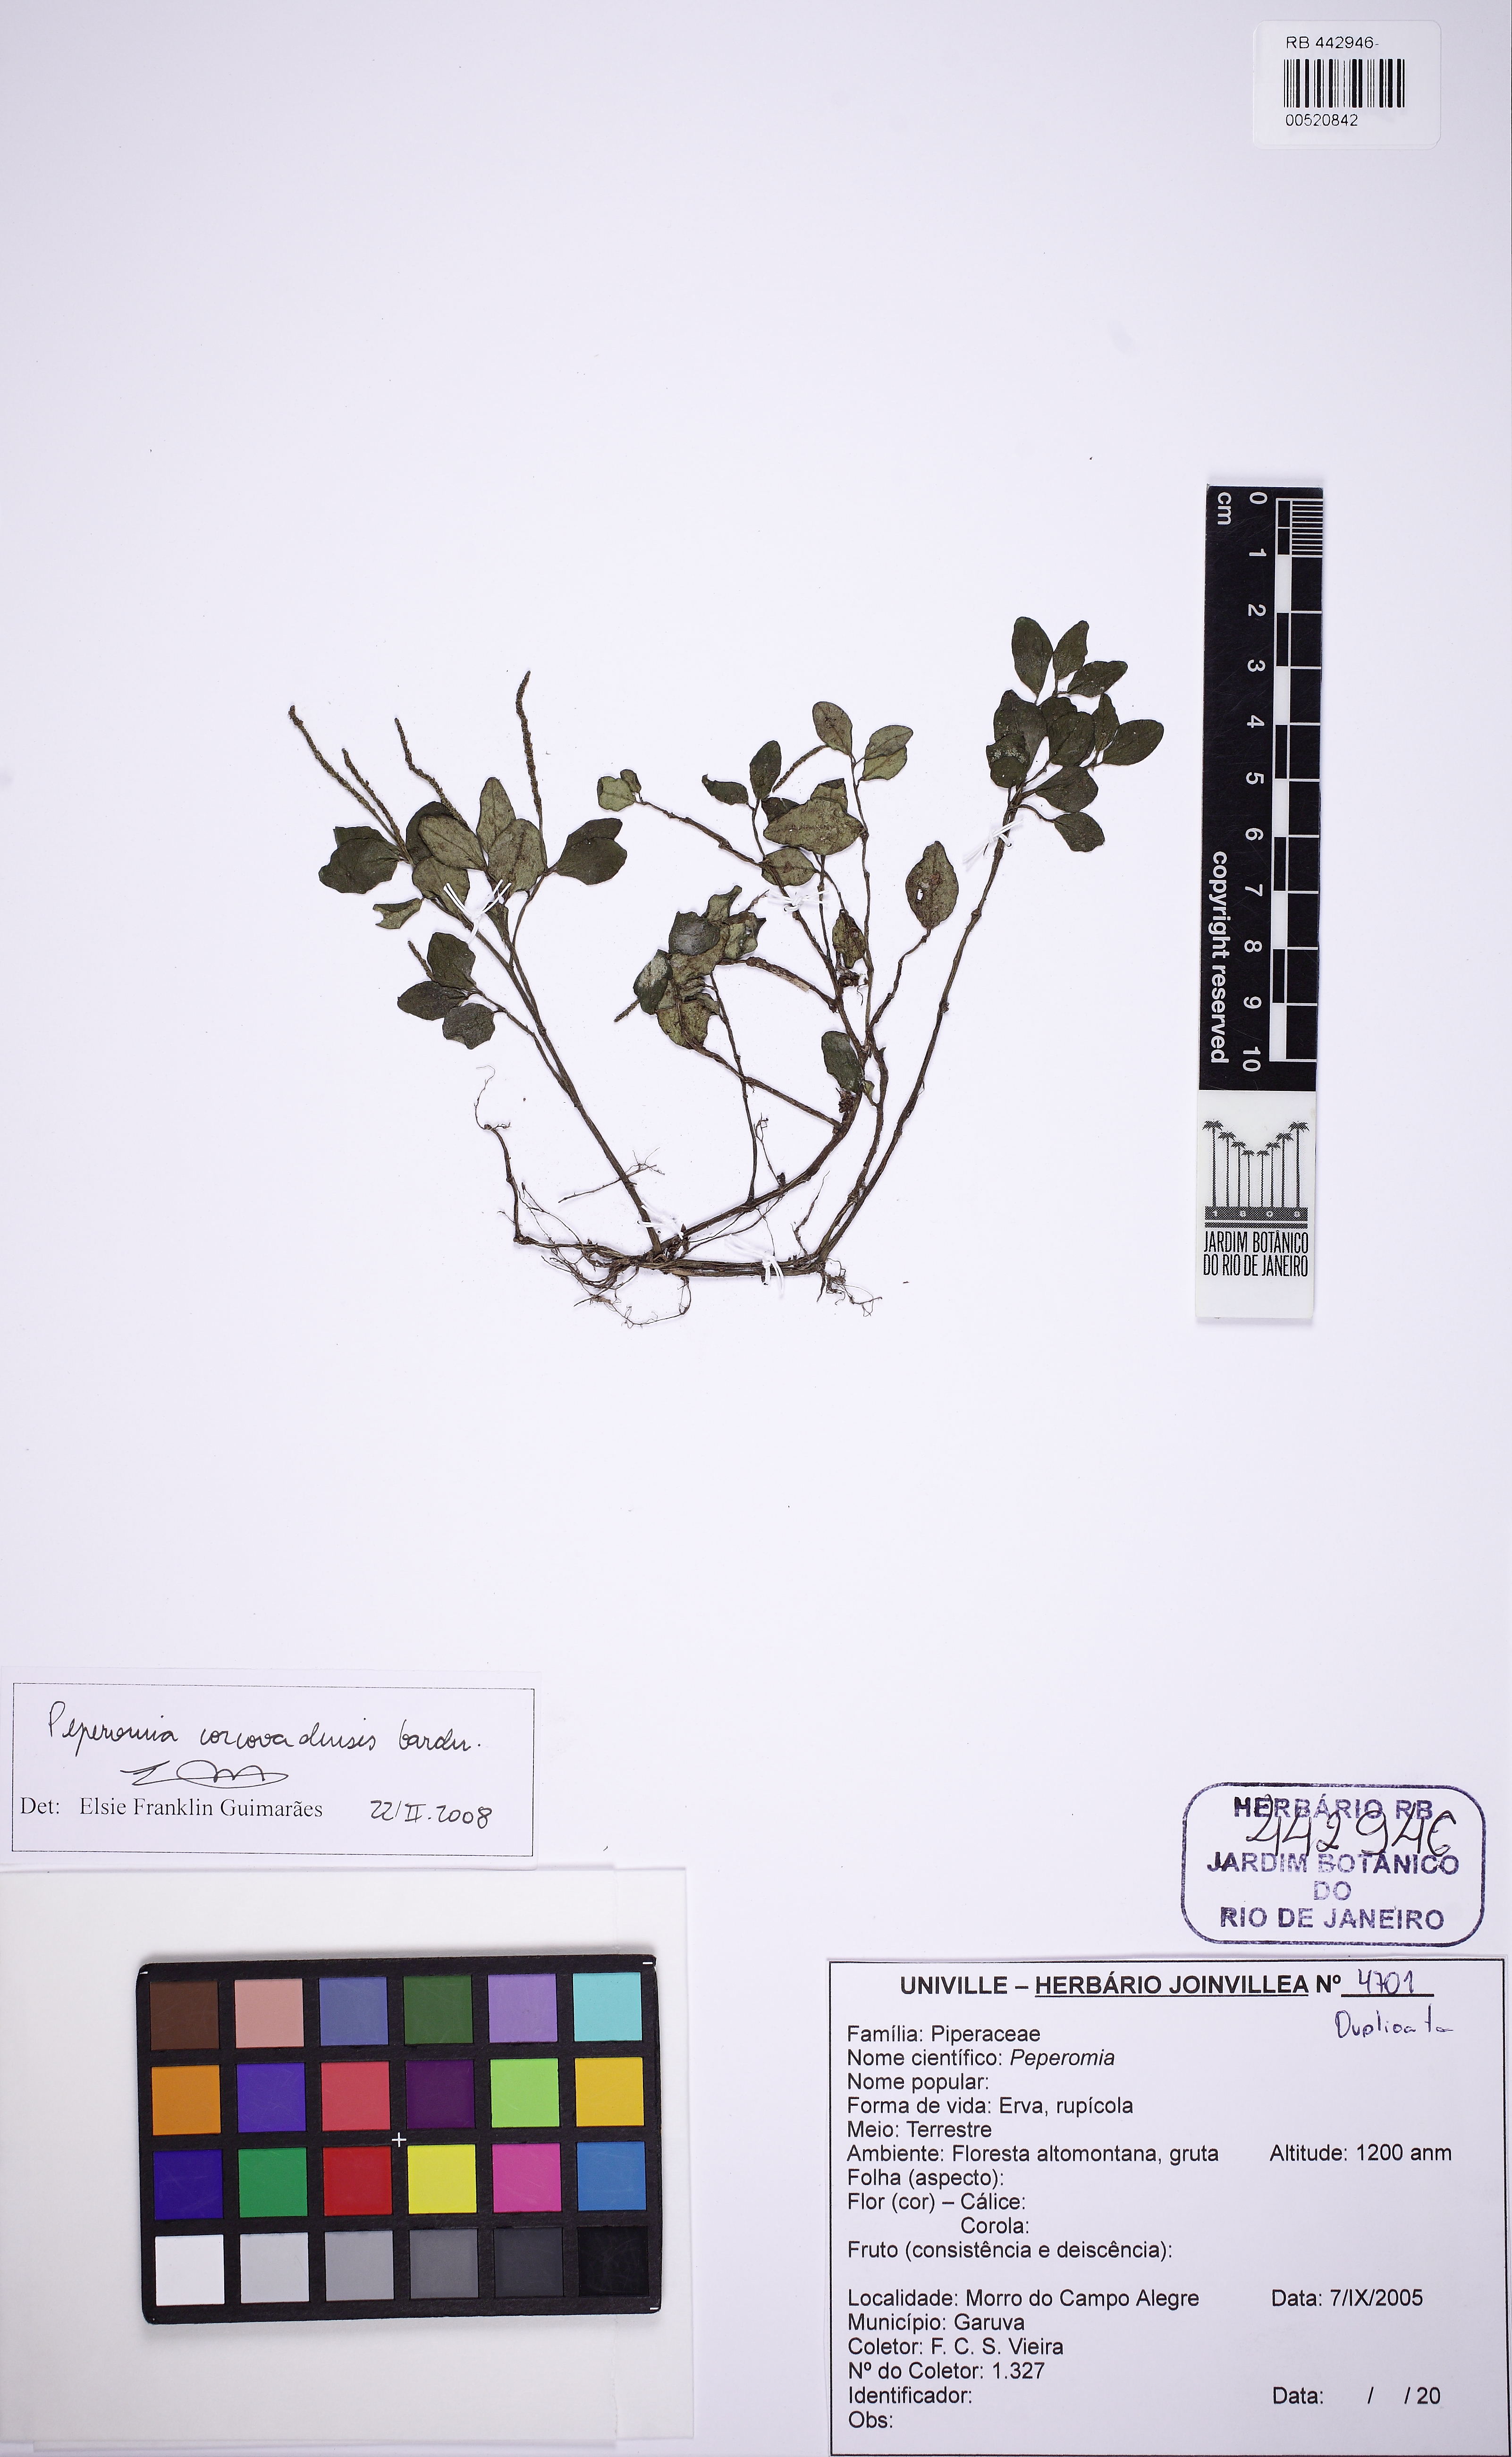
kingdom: Plantae
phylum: Tracheophyta
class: Magnoliopsida
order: Piperales
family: Piperaceae
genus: Peperomia
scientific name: Peperomia corcovadensis
